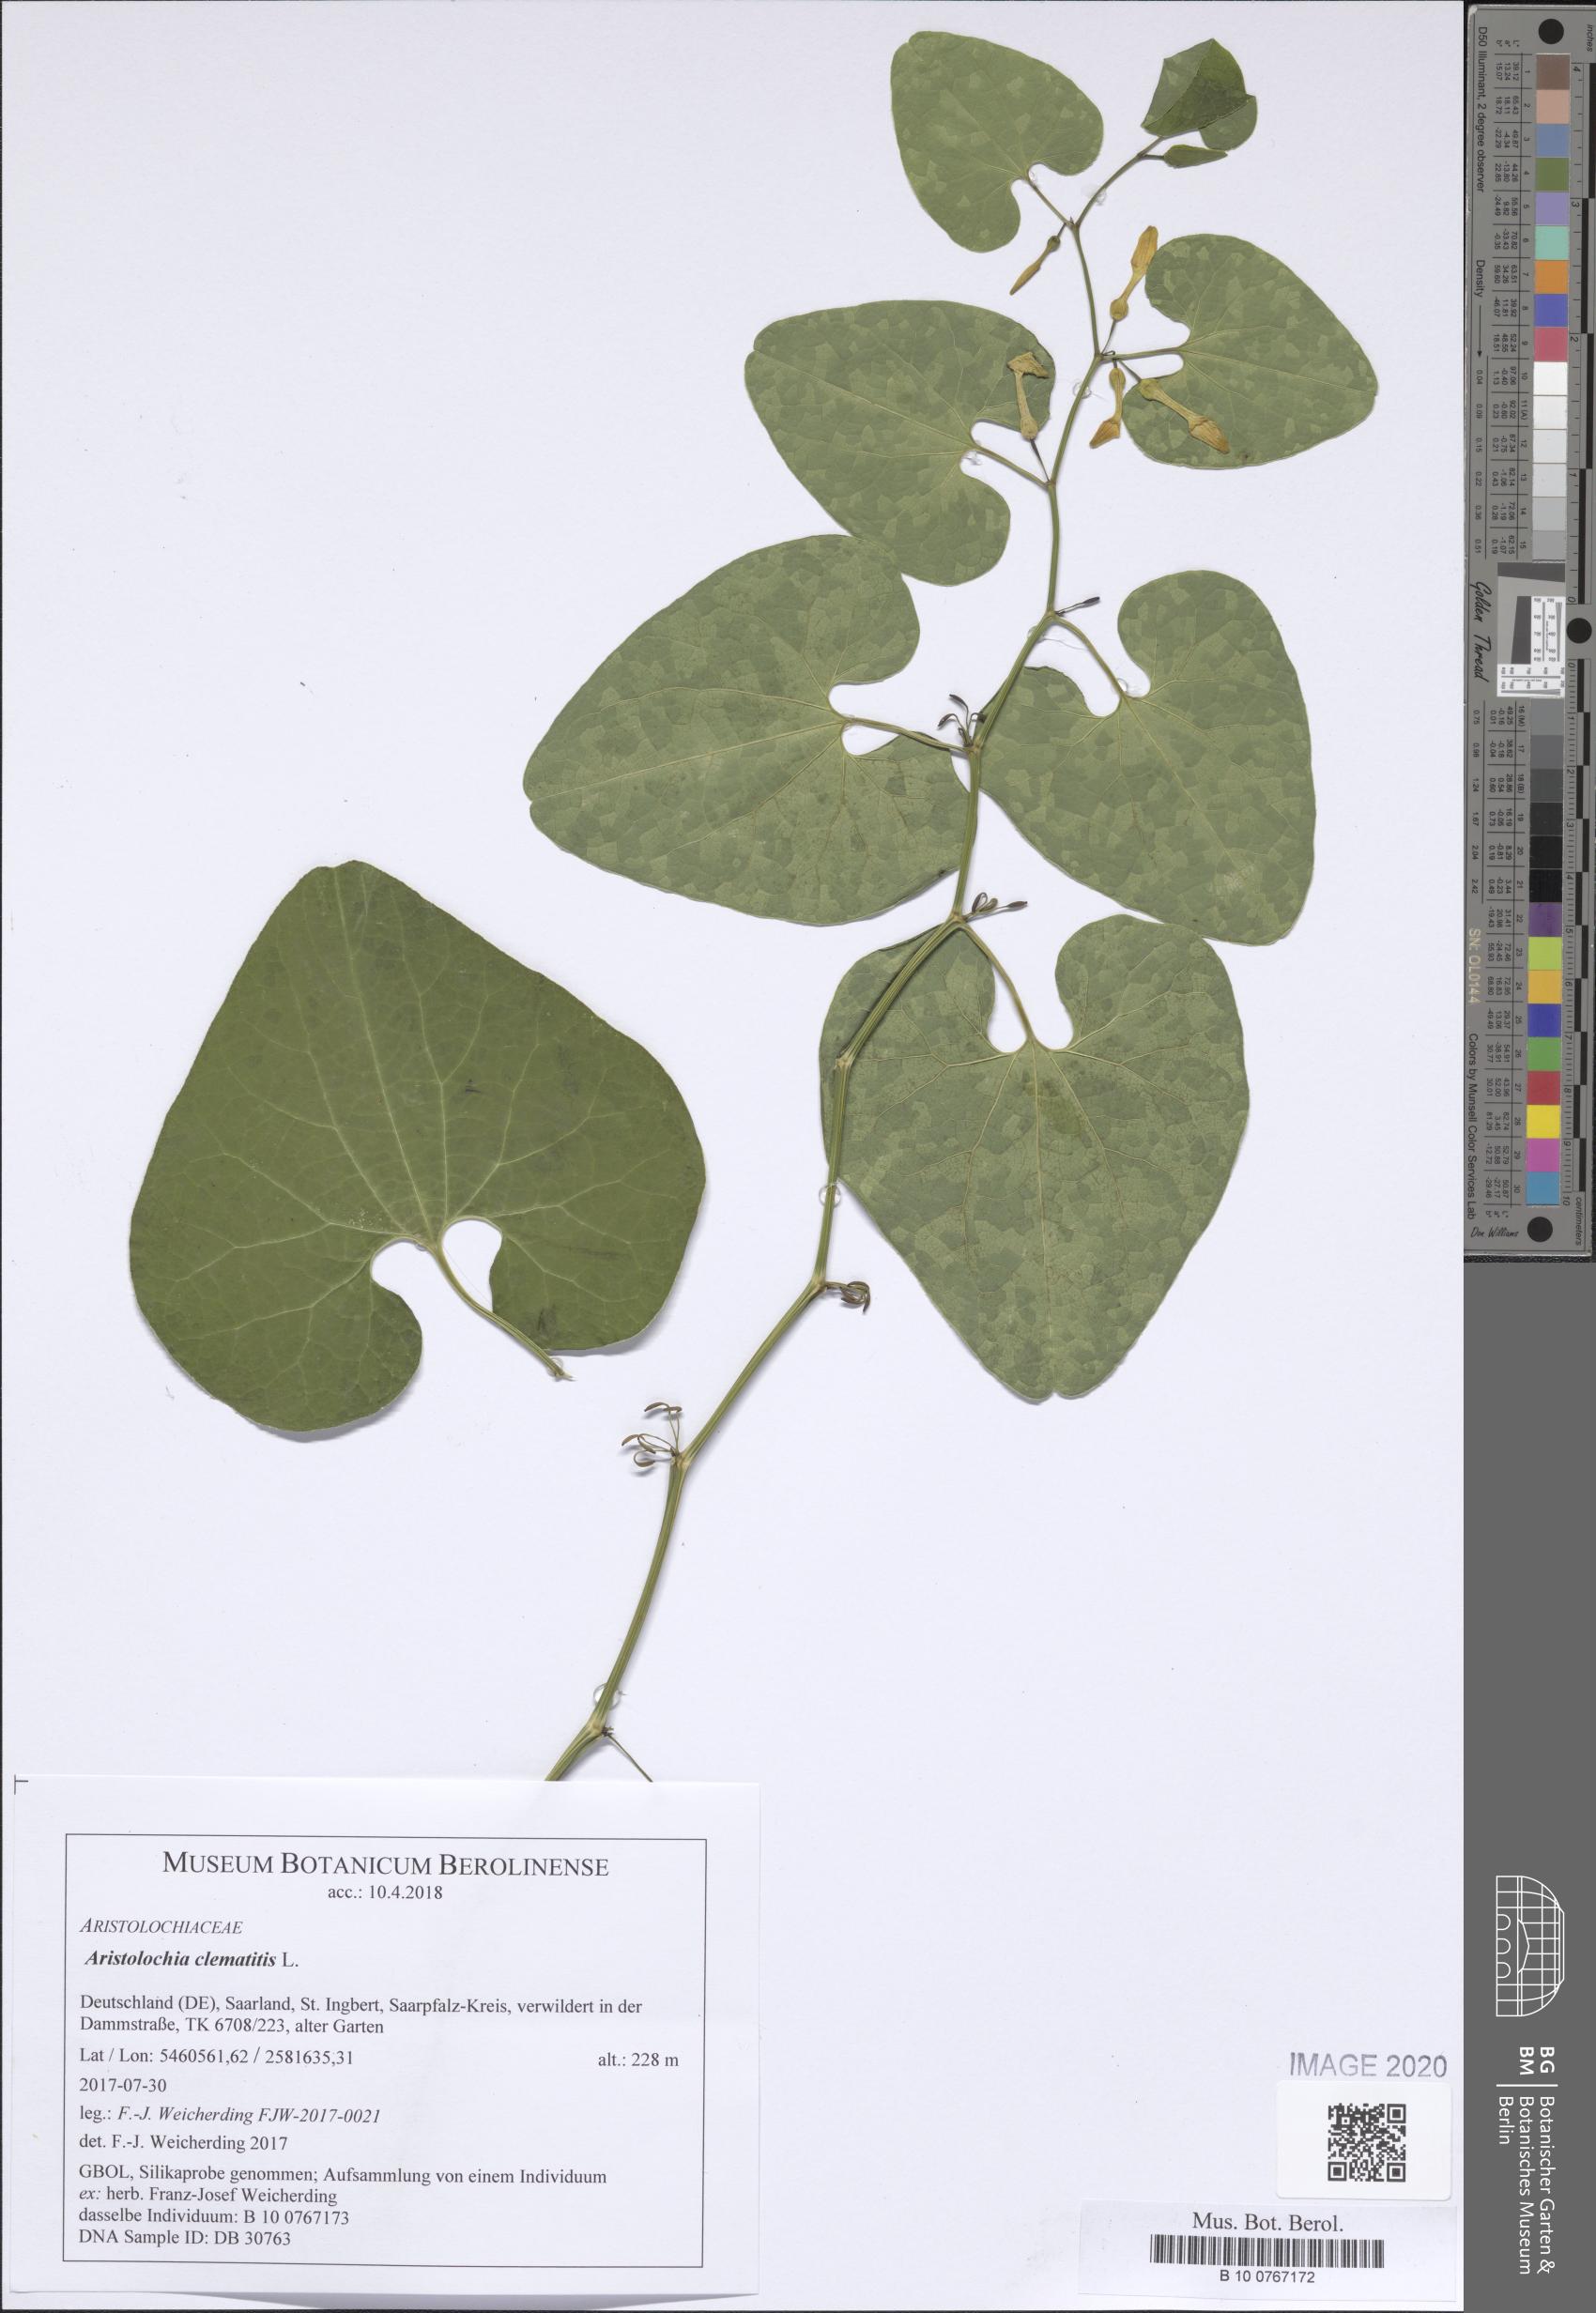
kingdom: Plantae
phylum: Tracheophyta
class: Magnoliopsida
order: Piperales
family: Aristolochiaceae
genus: Aristolochia
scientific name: Aristolochia clematitis
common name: Birthwort
